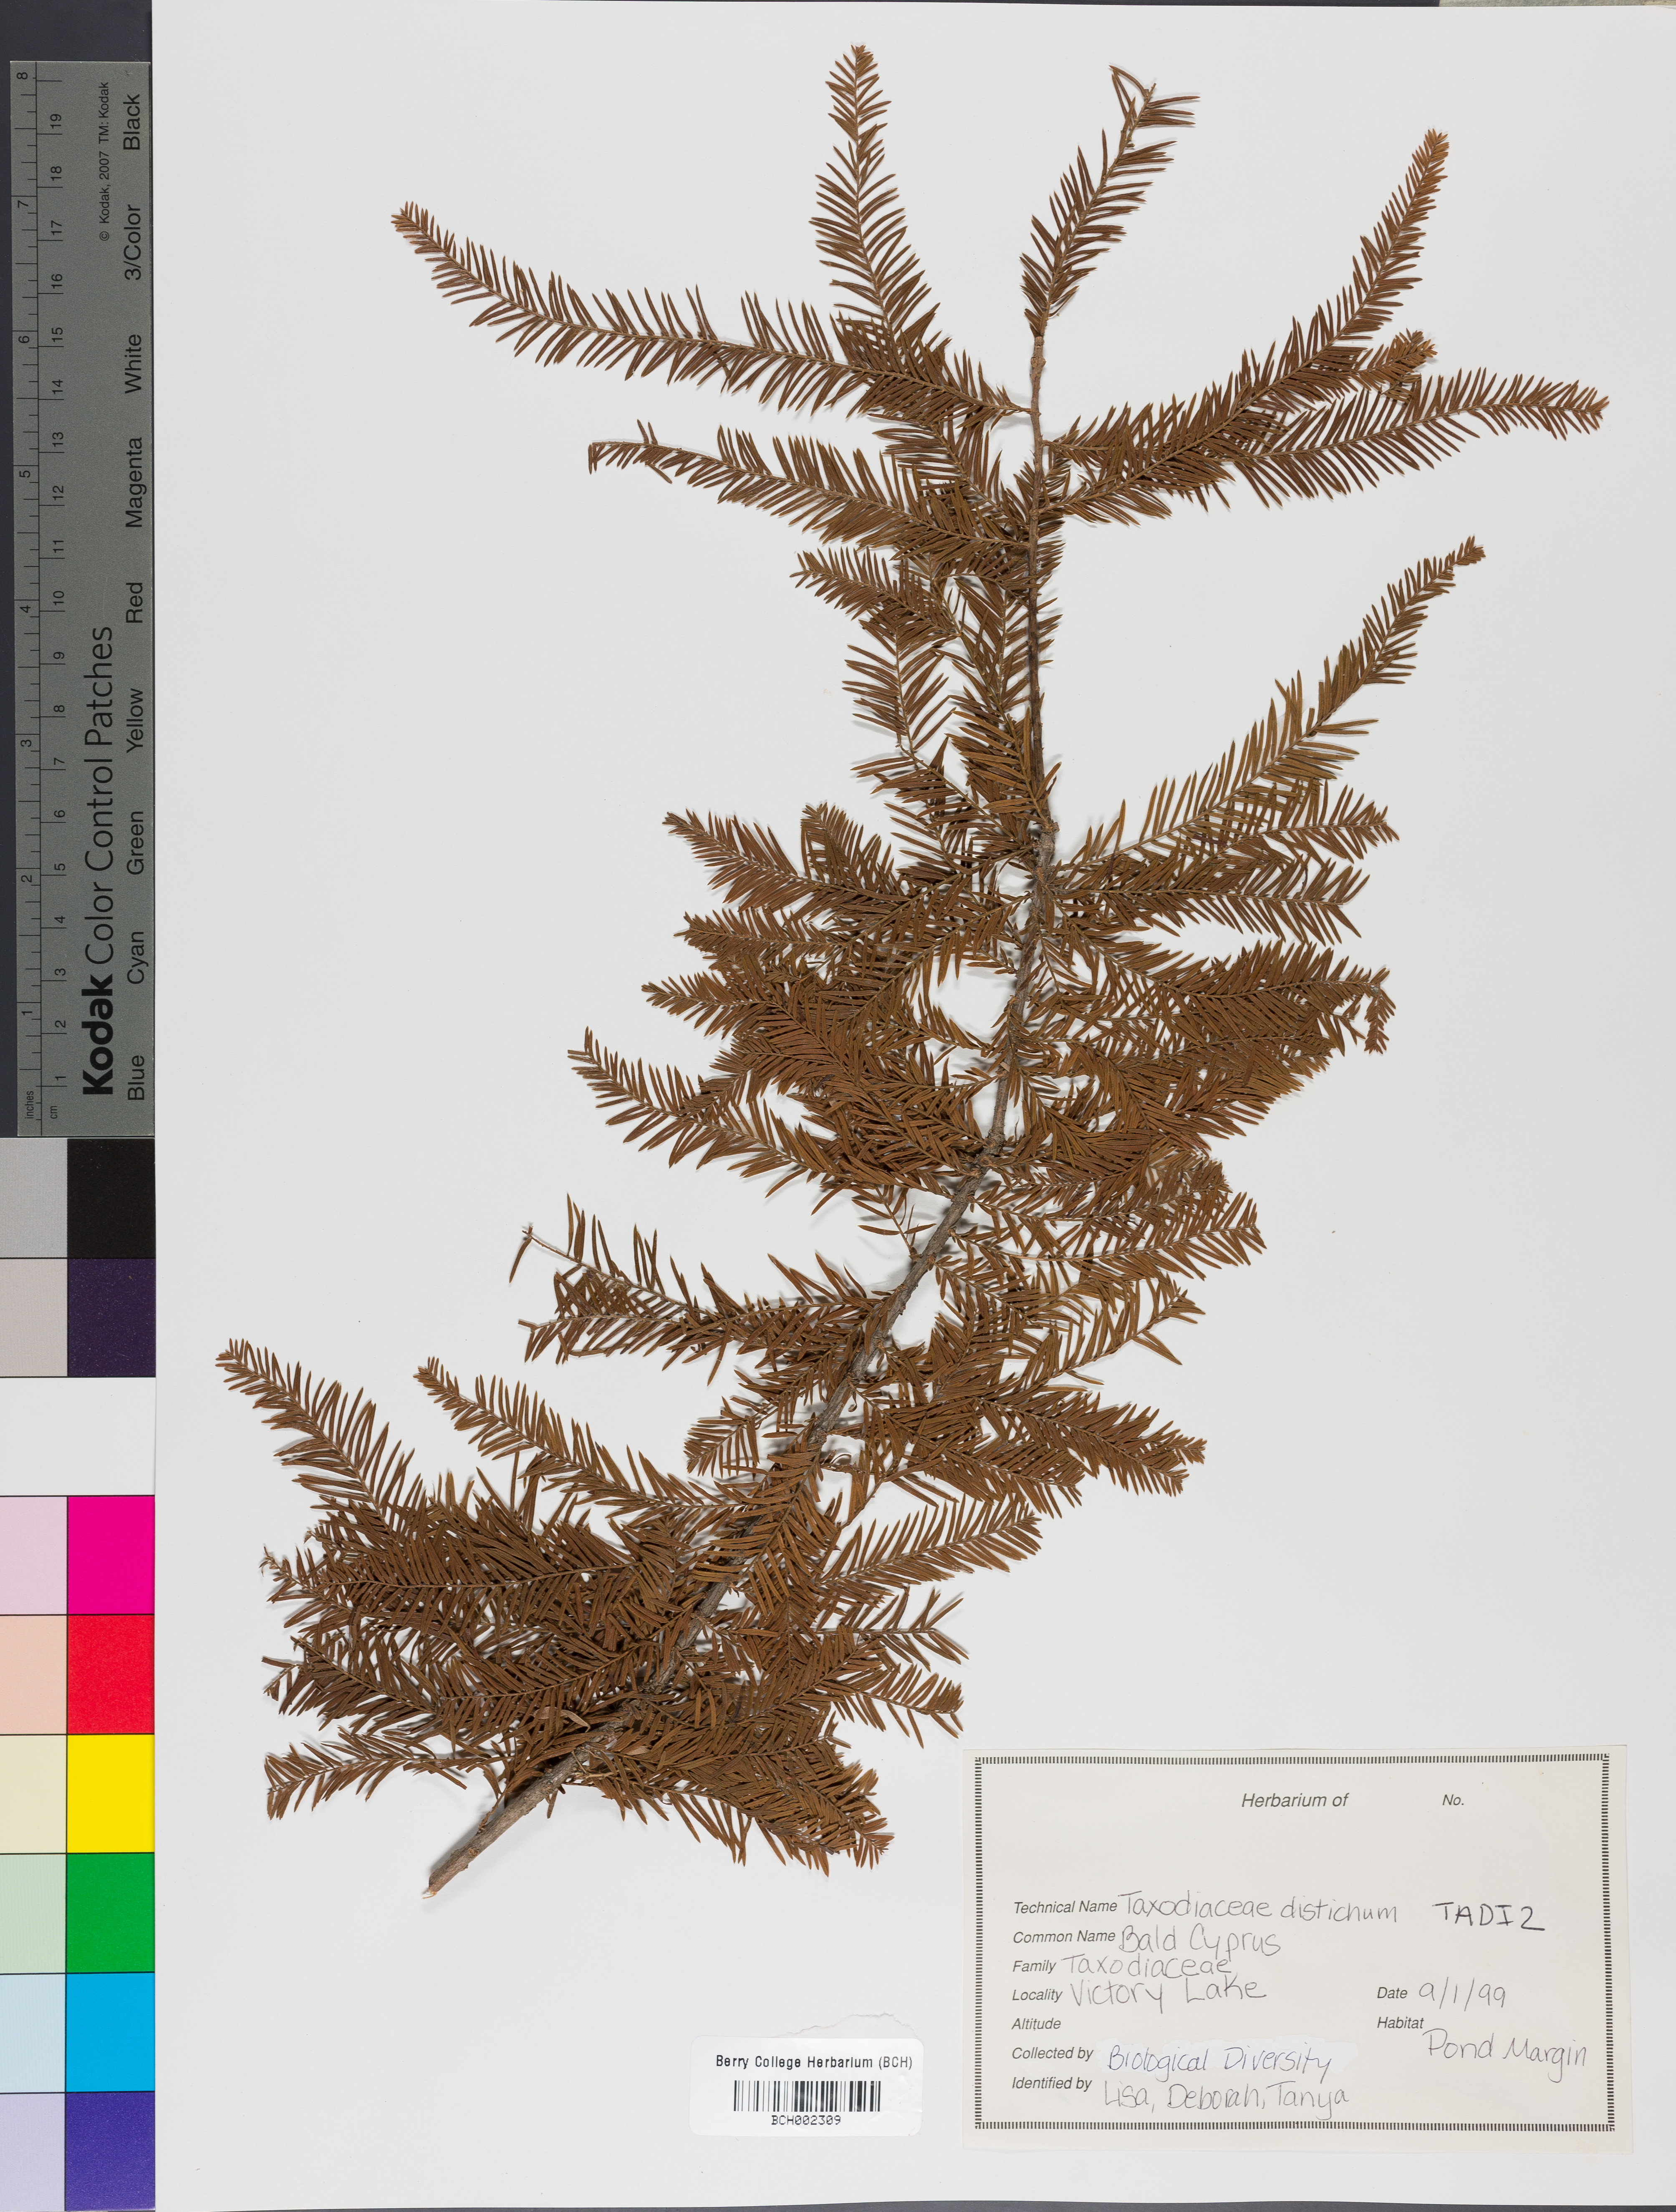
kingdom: Plantae
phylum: Tracheophyta
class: Pinopsida
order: Pinales
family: Cupressaceae
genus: Taxodium
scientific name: Taxodium distichum
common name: Bald cypress
